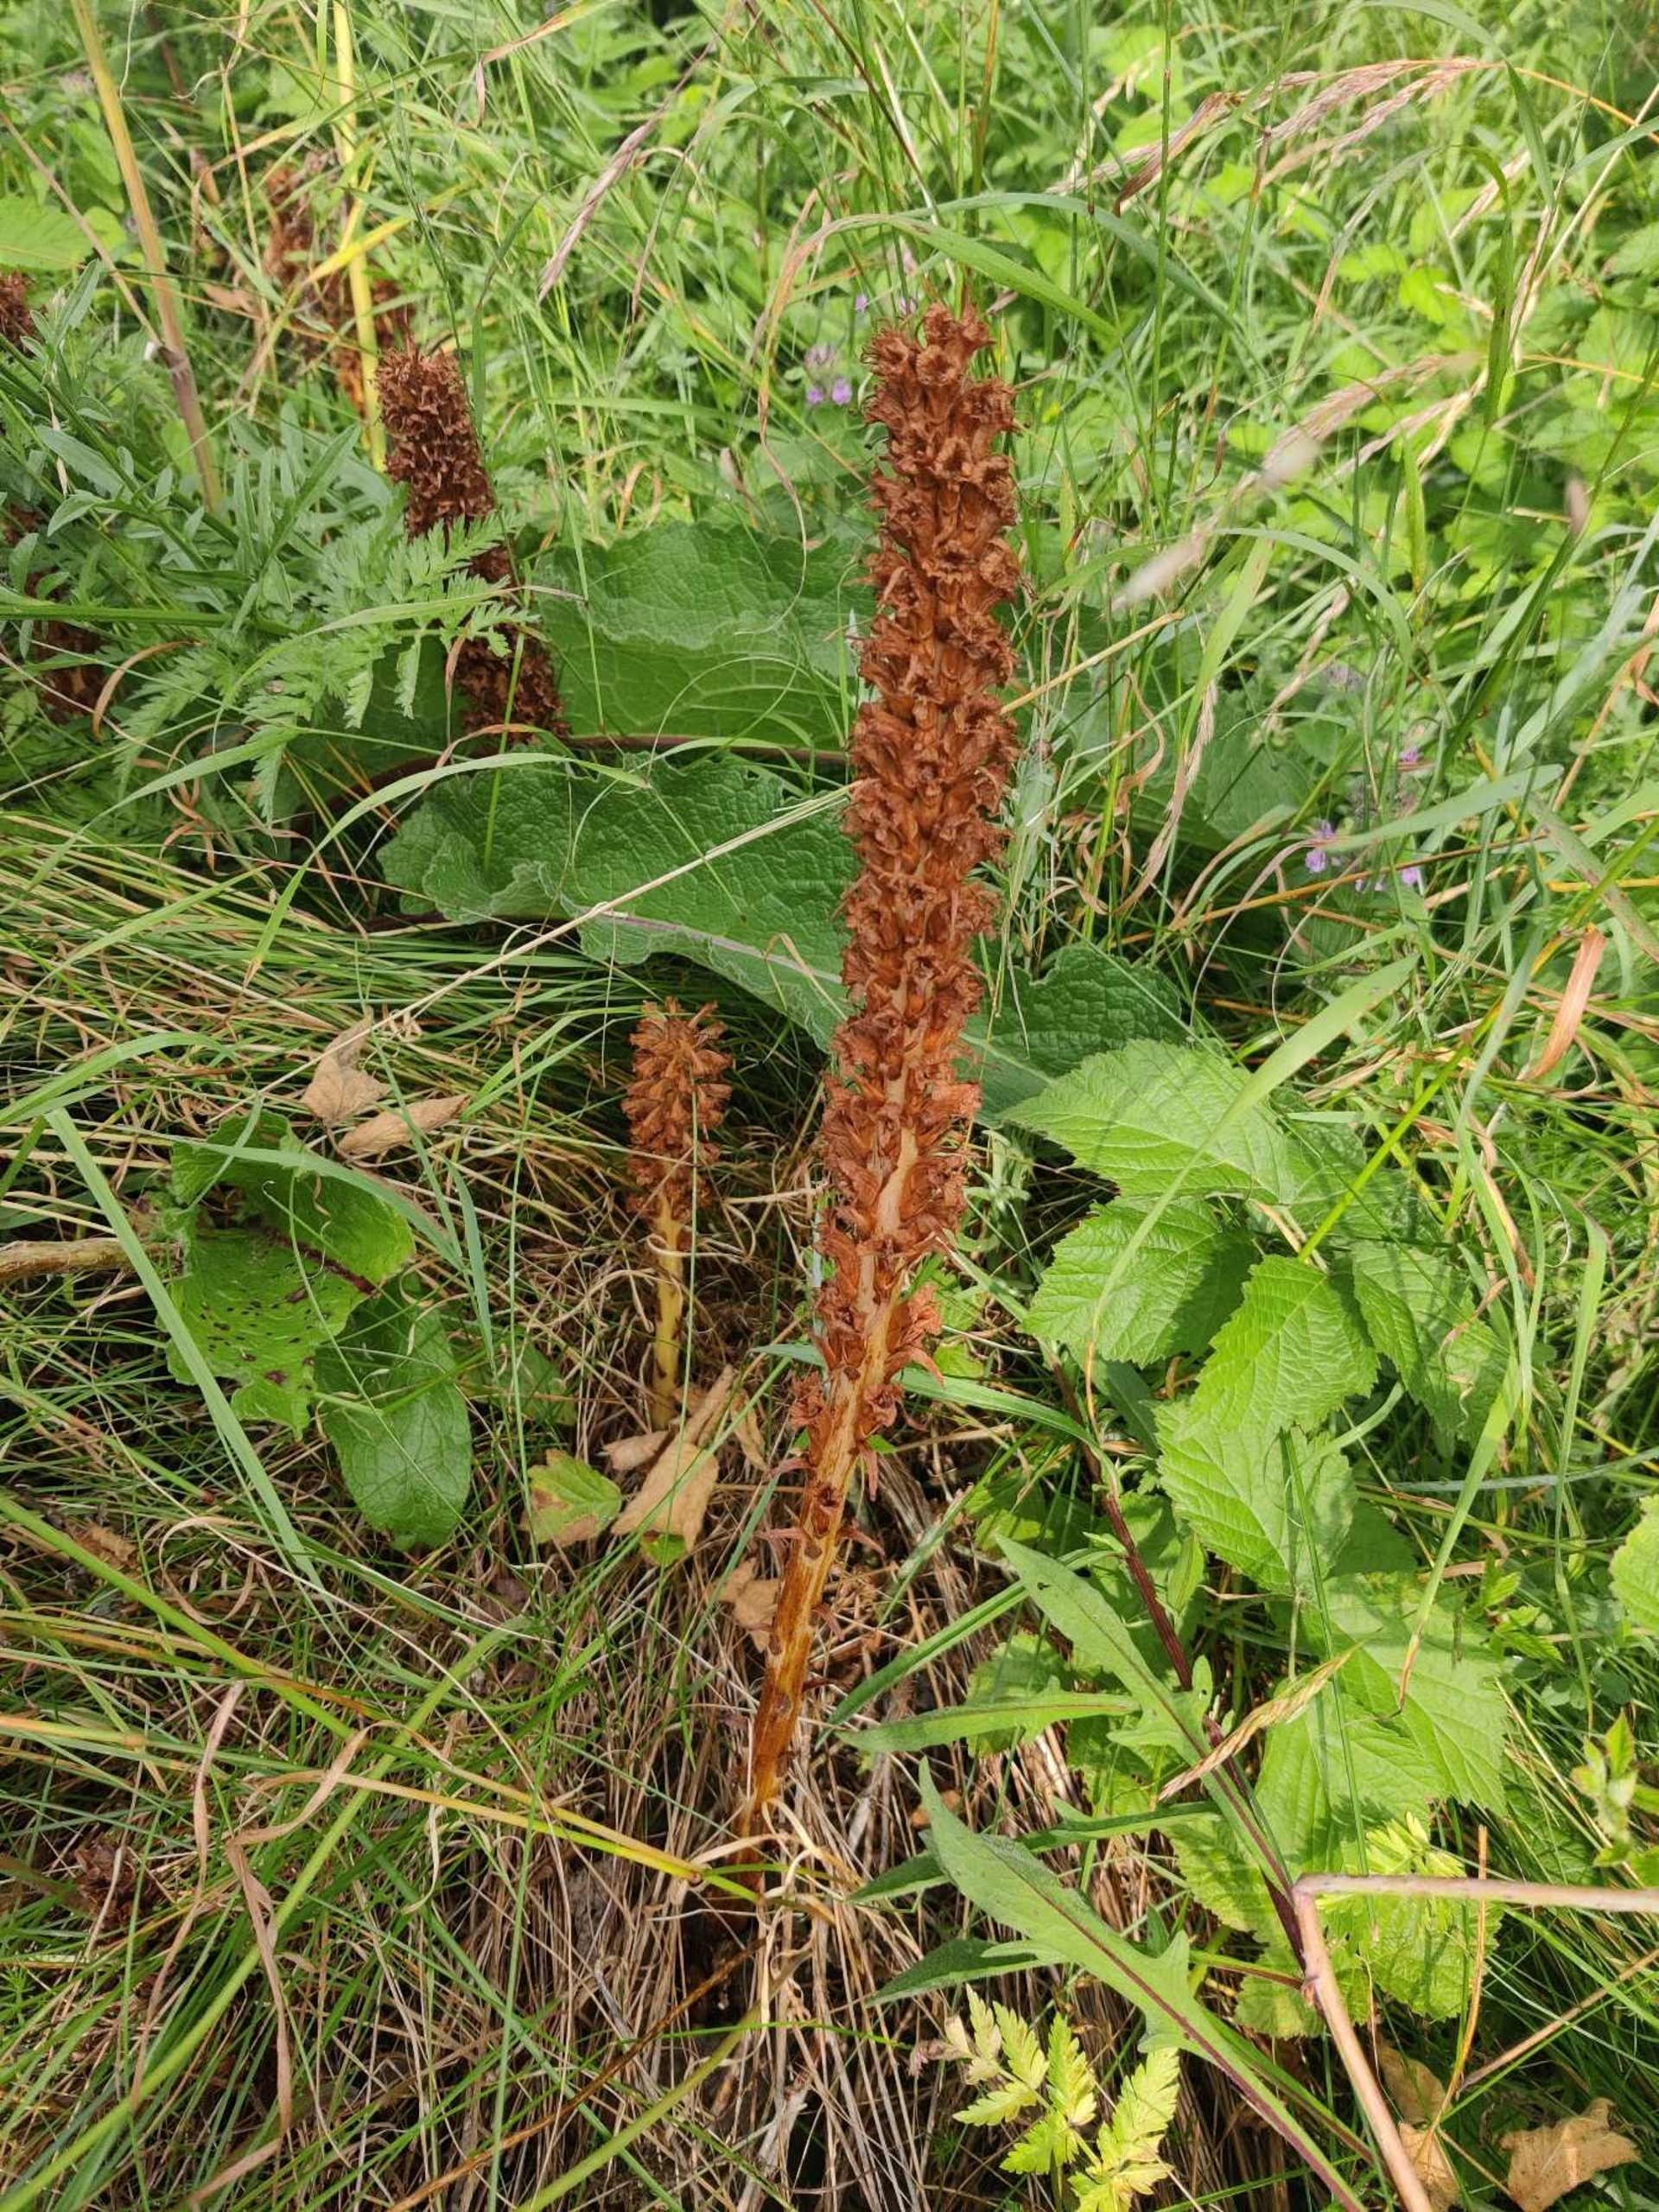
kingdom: Plantae
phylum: Tracheophyta
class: Magnoliopsida
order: Lamiales
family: Orobanchaceae
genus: Orobanche
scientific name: Orobanche elatior
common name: Stor gyvelkvæler
